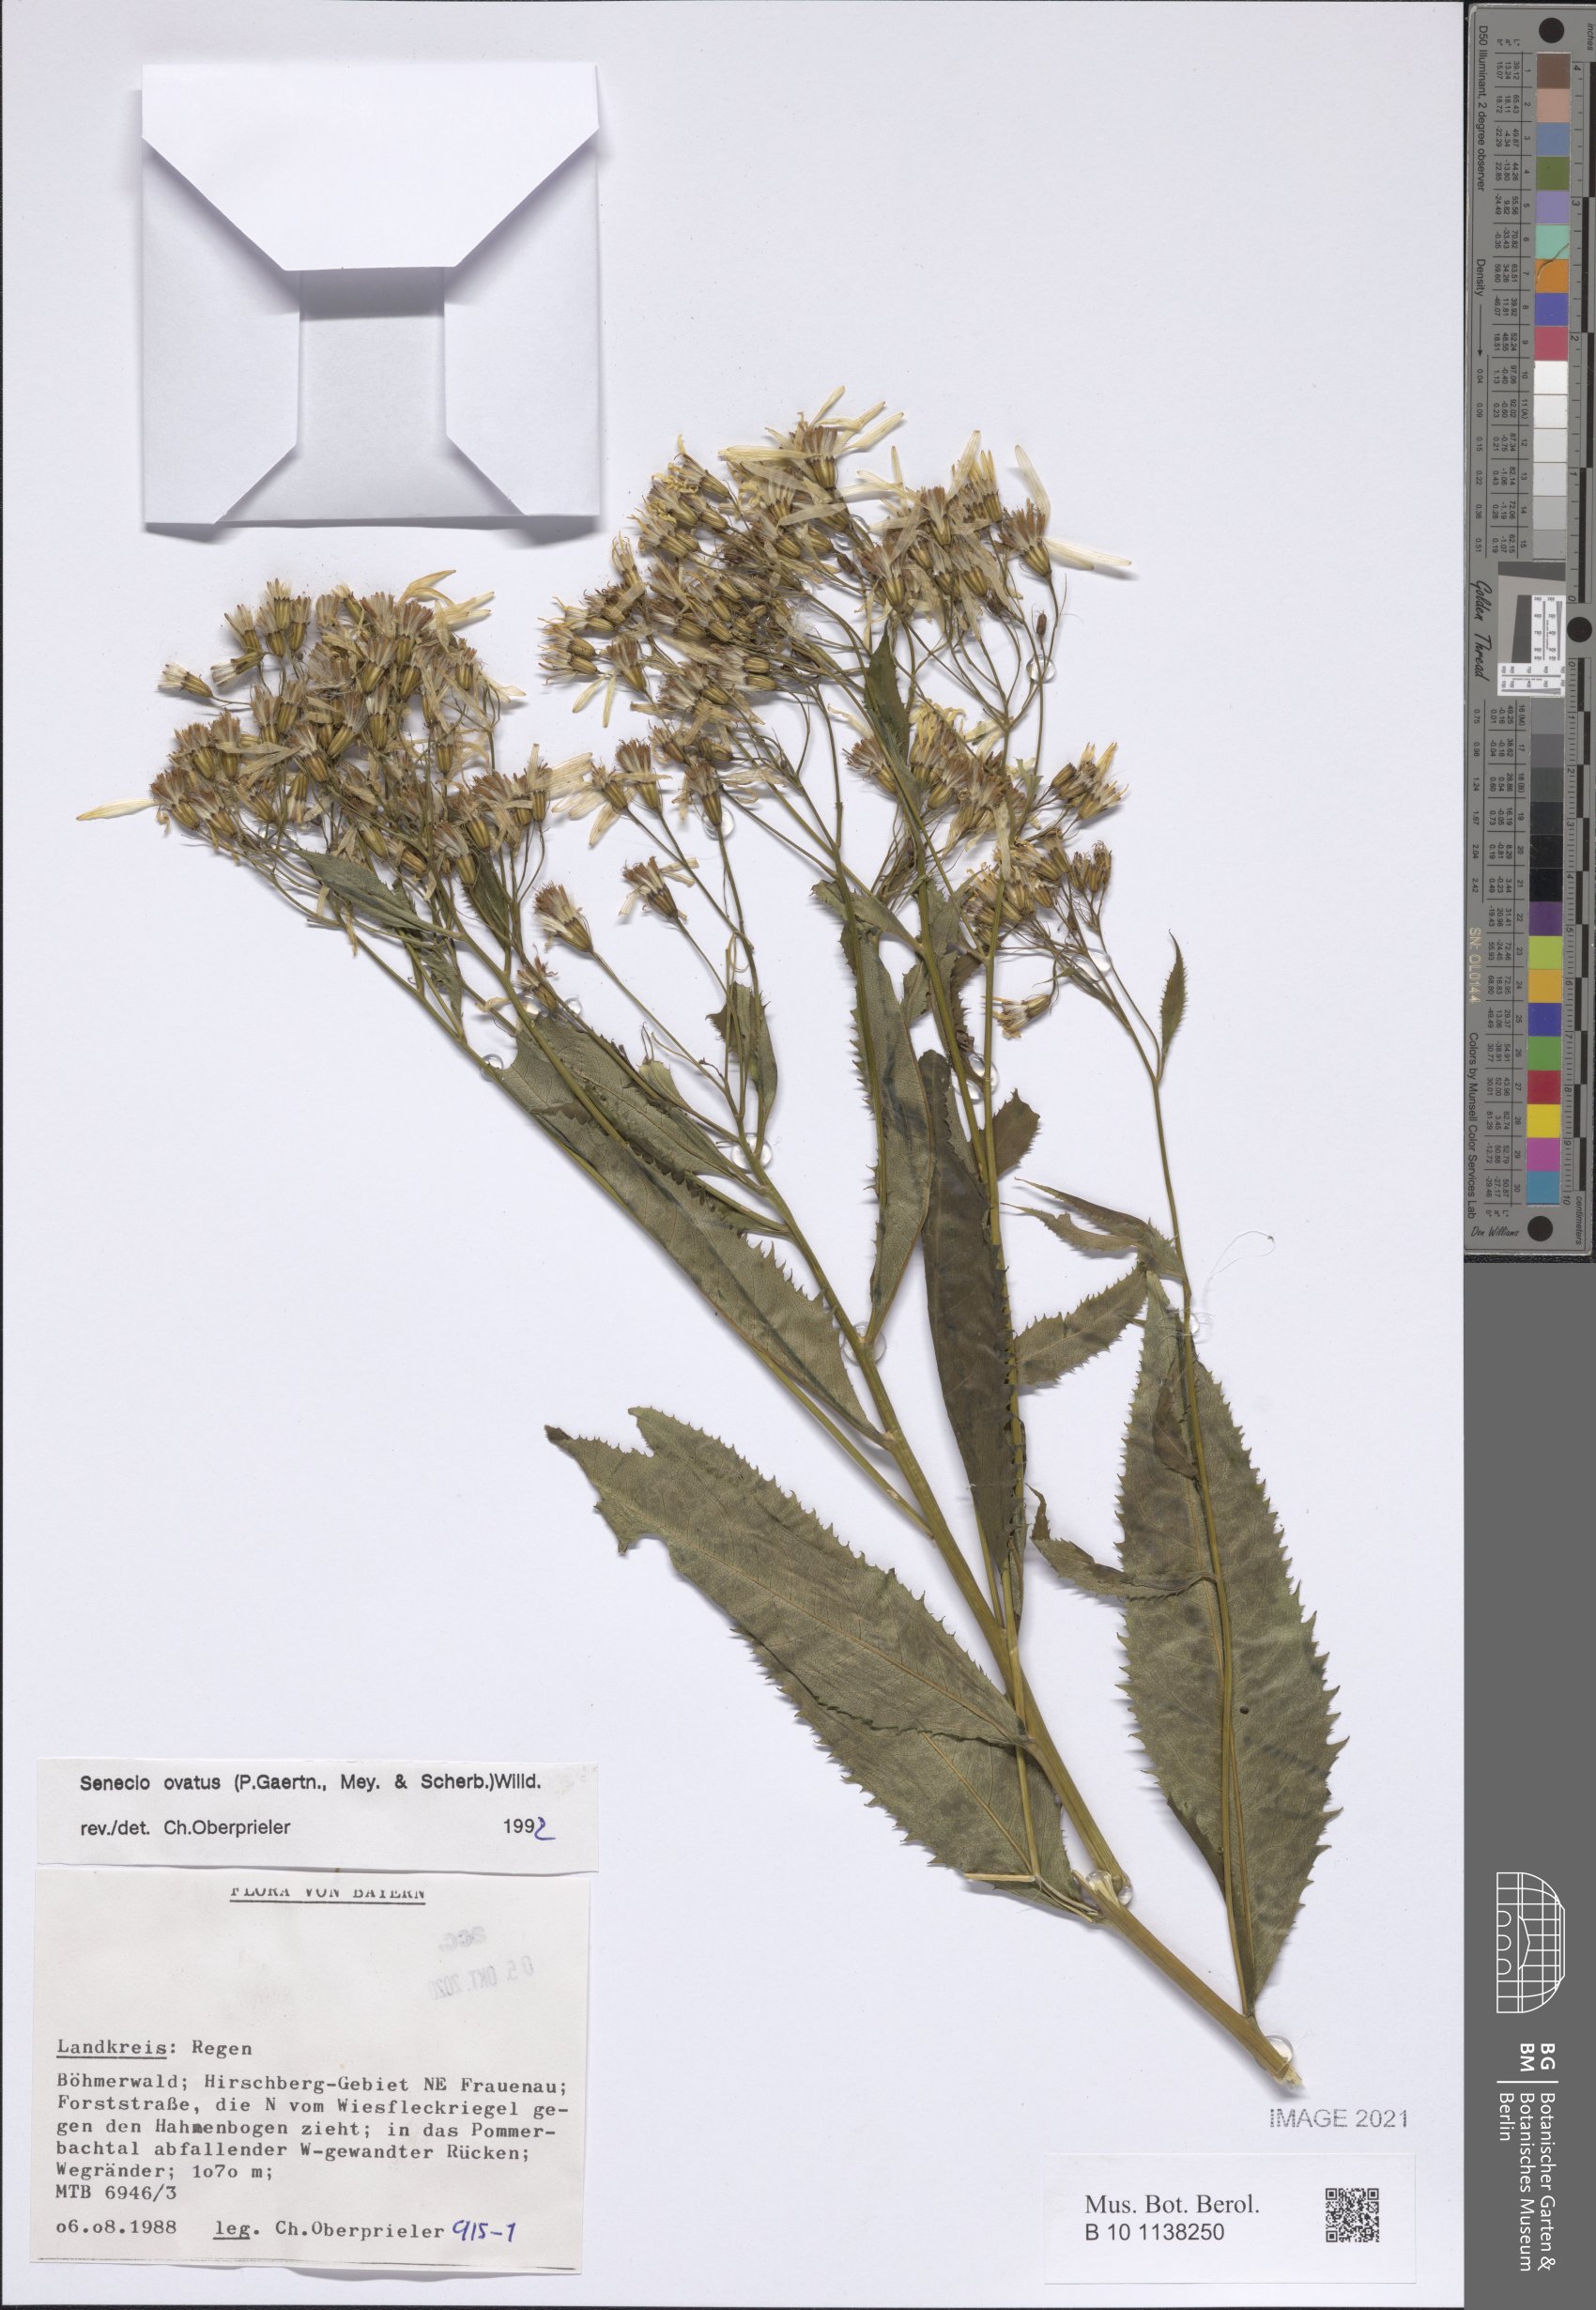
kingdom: Plantae
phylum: Tracheophyta
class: Magnoliopsida
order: Asterales
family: Asteraceae
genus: Senecio
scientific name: Senecio ovatus
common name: Wood ragwort
